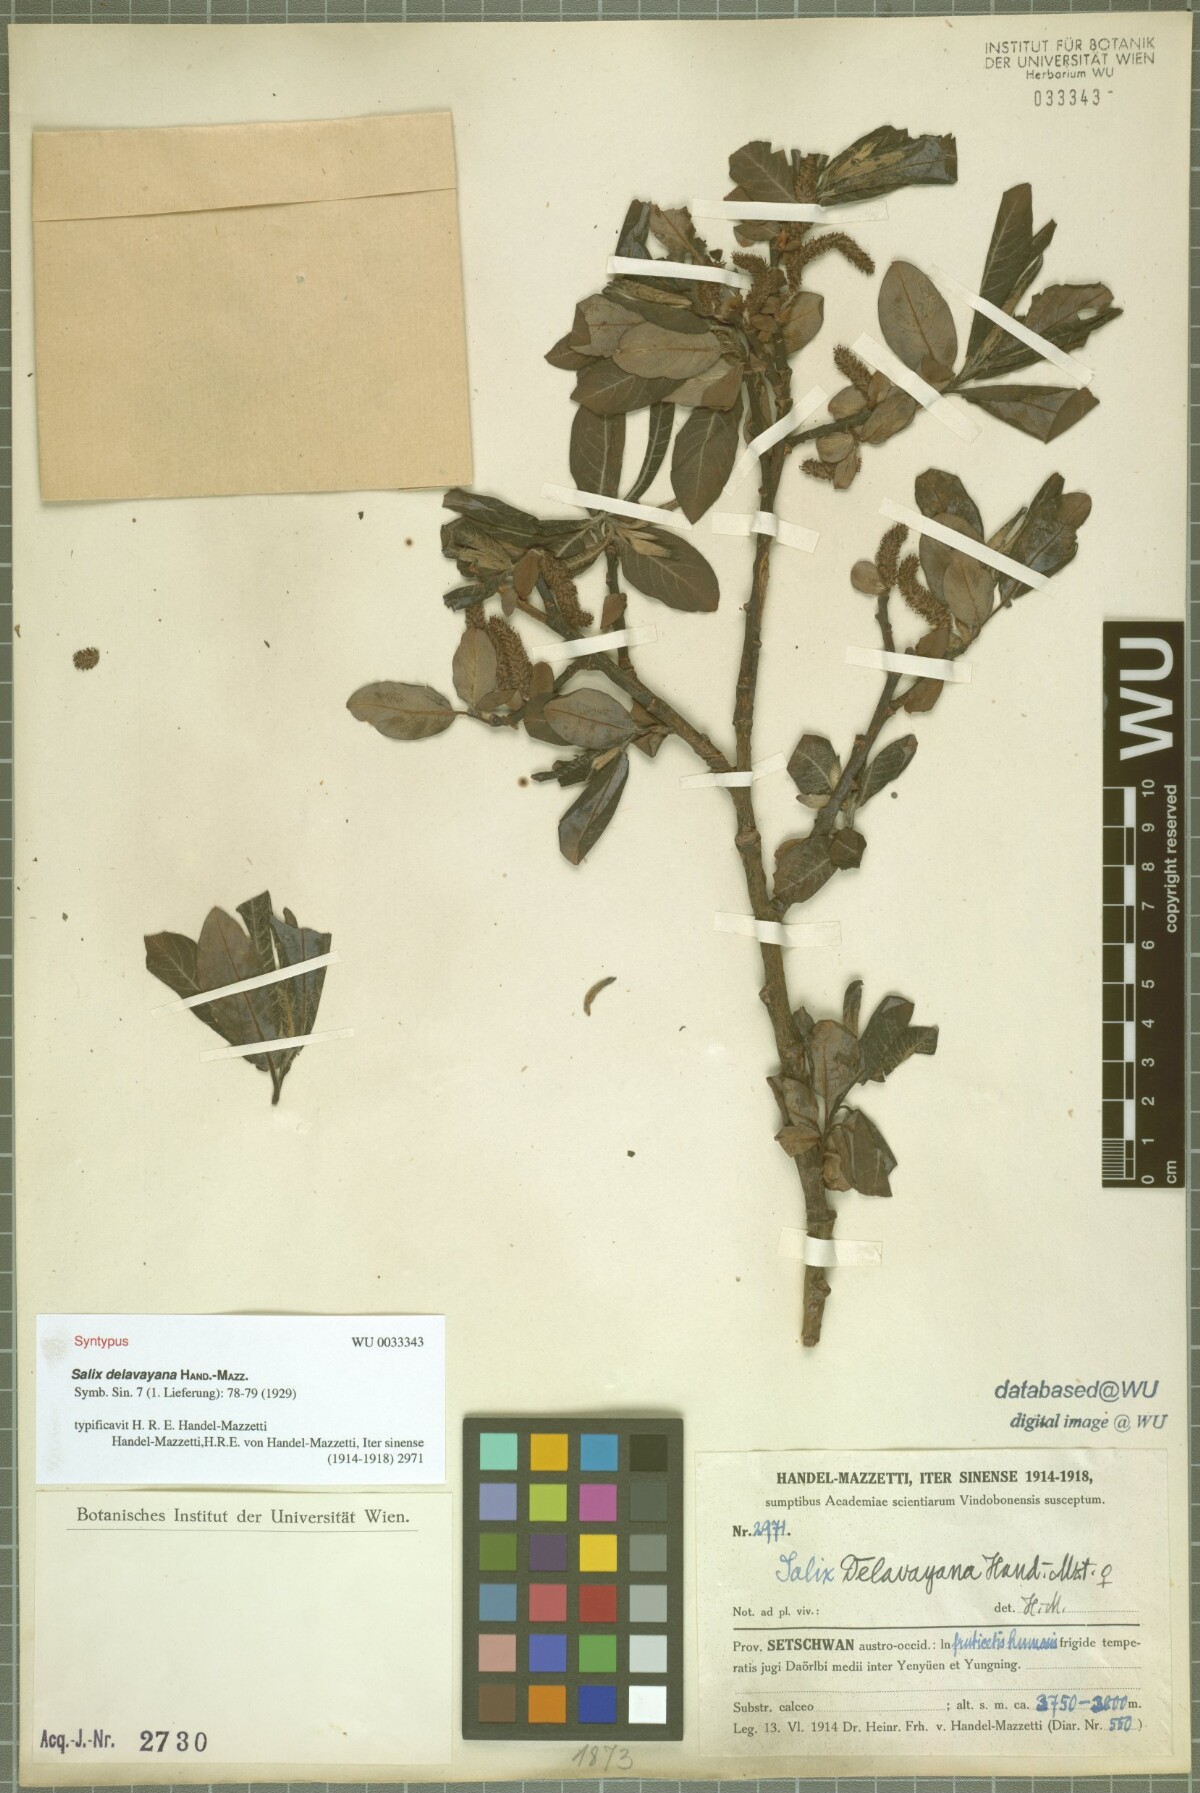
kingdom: Plantae
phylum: Tracheophyta
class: Magnoliopsida
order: Malpighiales
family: Salicaceae
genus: Salix
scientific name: Salix delavayana
